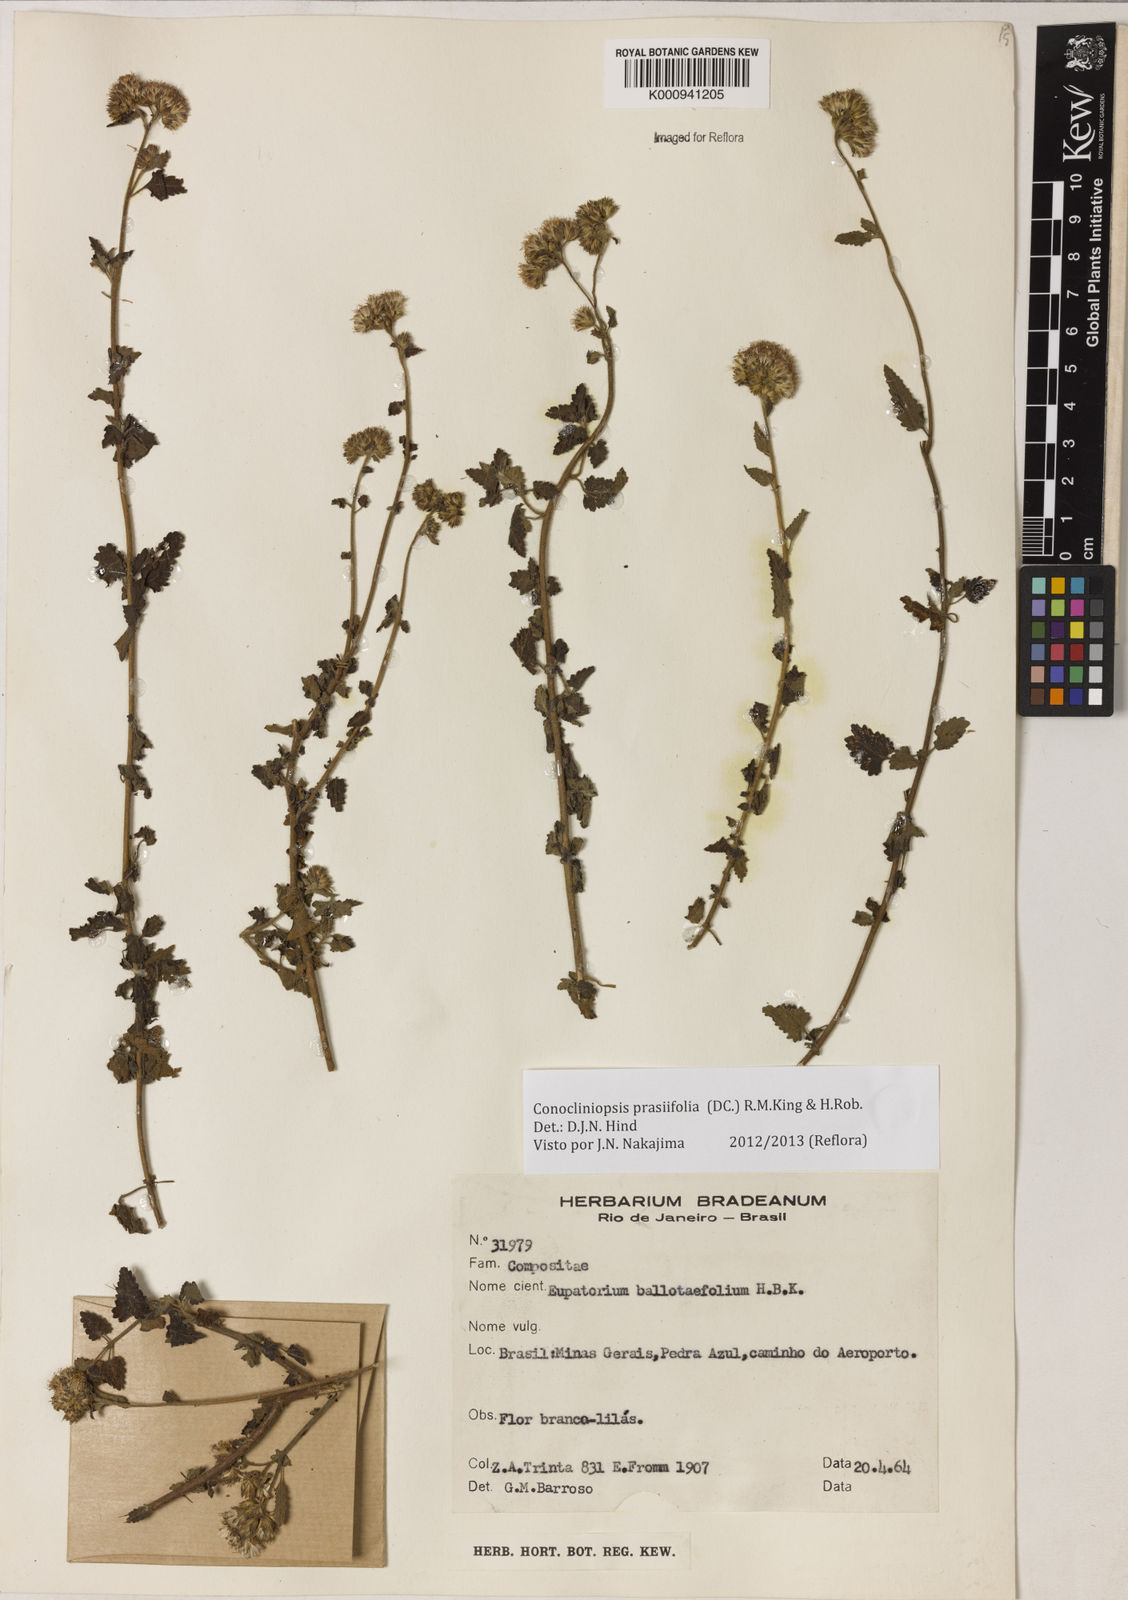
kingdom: Plantae
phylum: Tracheophyta
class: Magnoliopsida
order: Asterales
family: Asteraceae
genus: Conocliniopsis
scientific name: Conocliniopsis grossedentata
